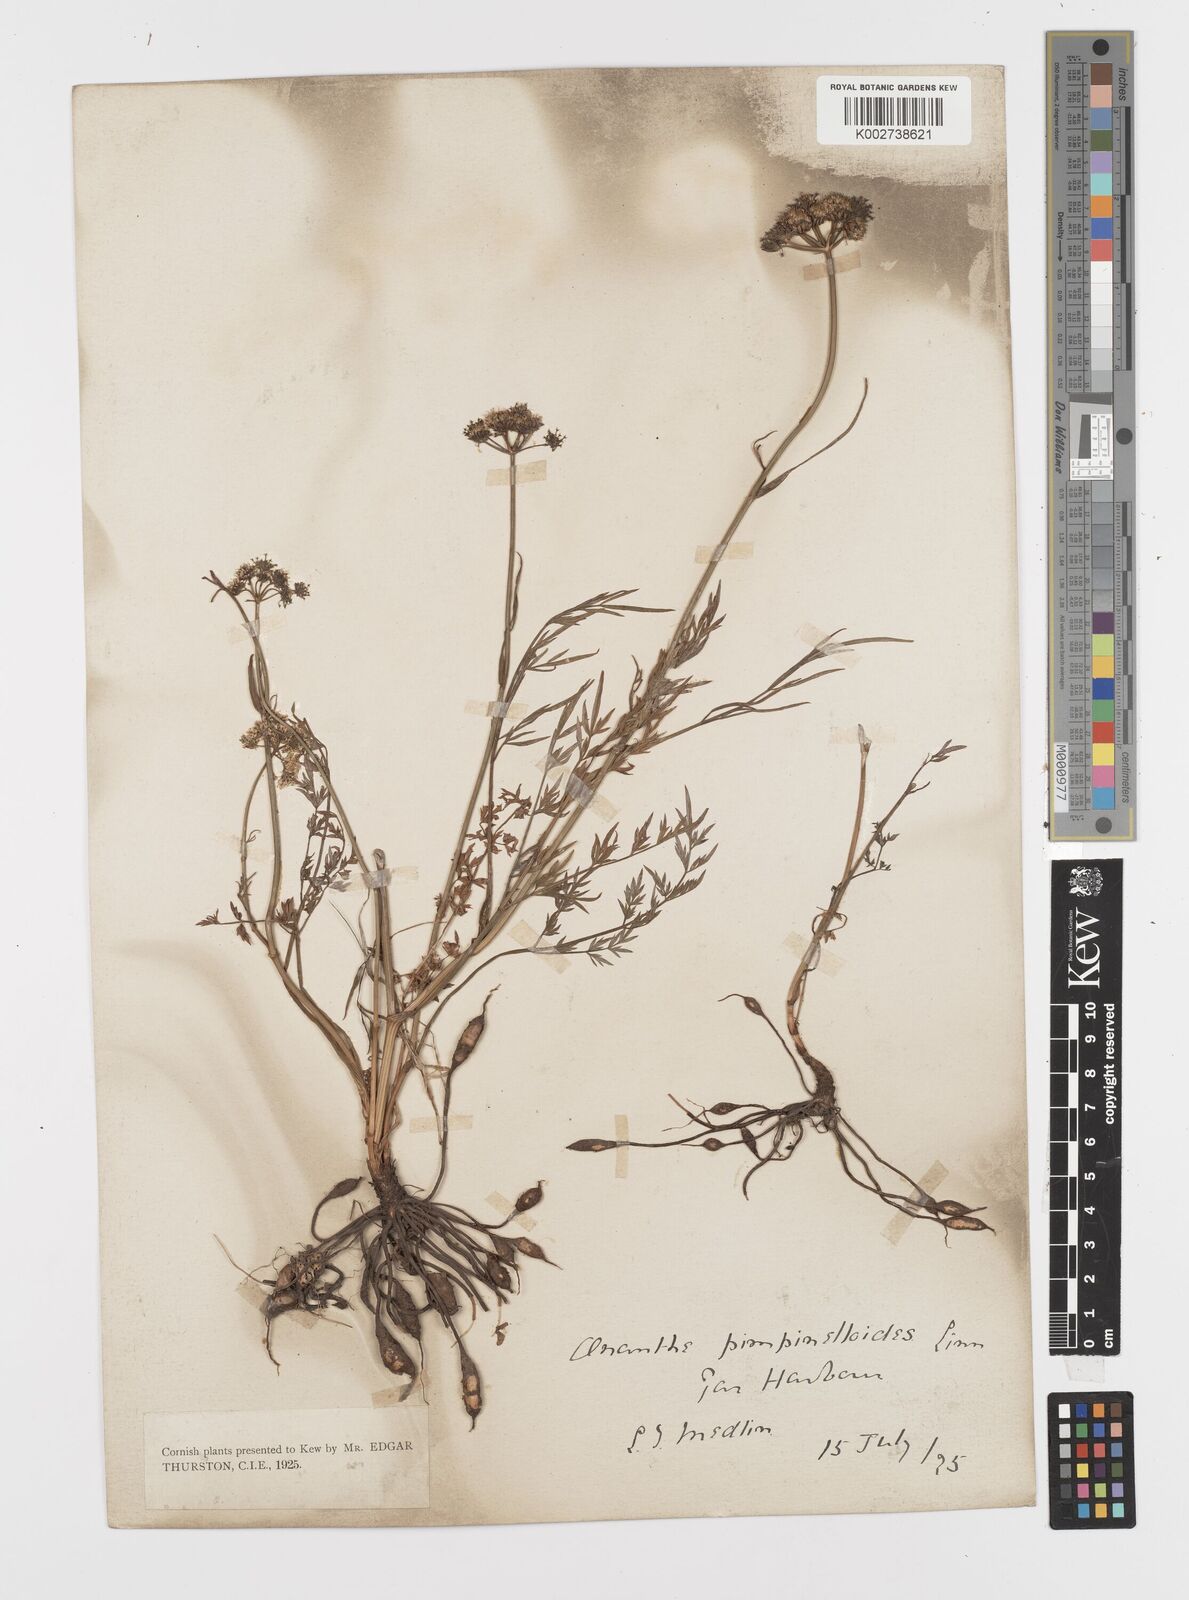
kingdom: Plantae
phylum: Tracheophyta
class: Magnoliopsida
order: Apiales
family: Apiaceae
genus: Oenanthe
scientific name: Oenanthe pimpinelloides
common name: Corky-fruited water-dropwort
